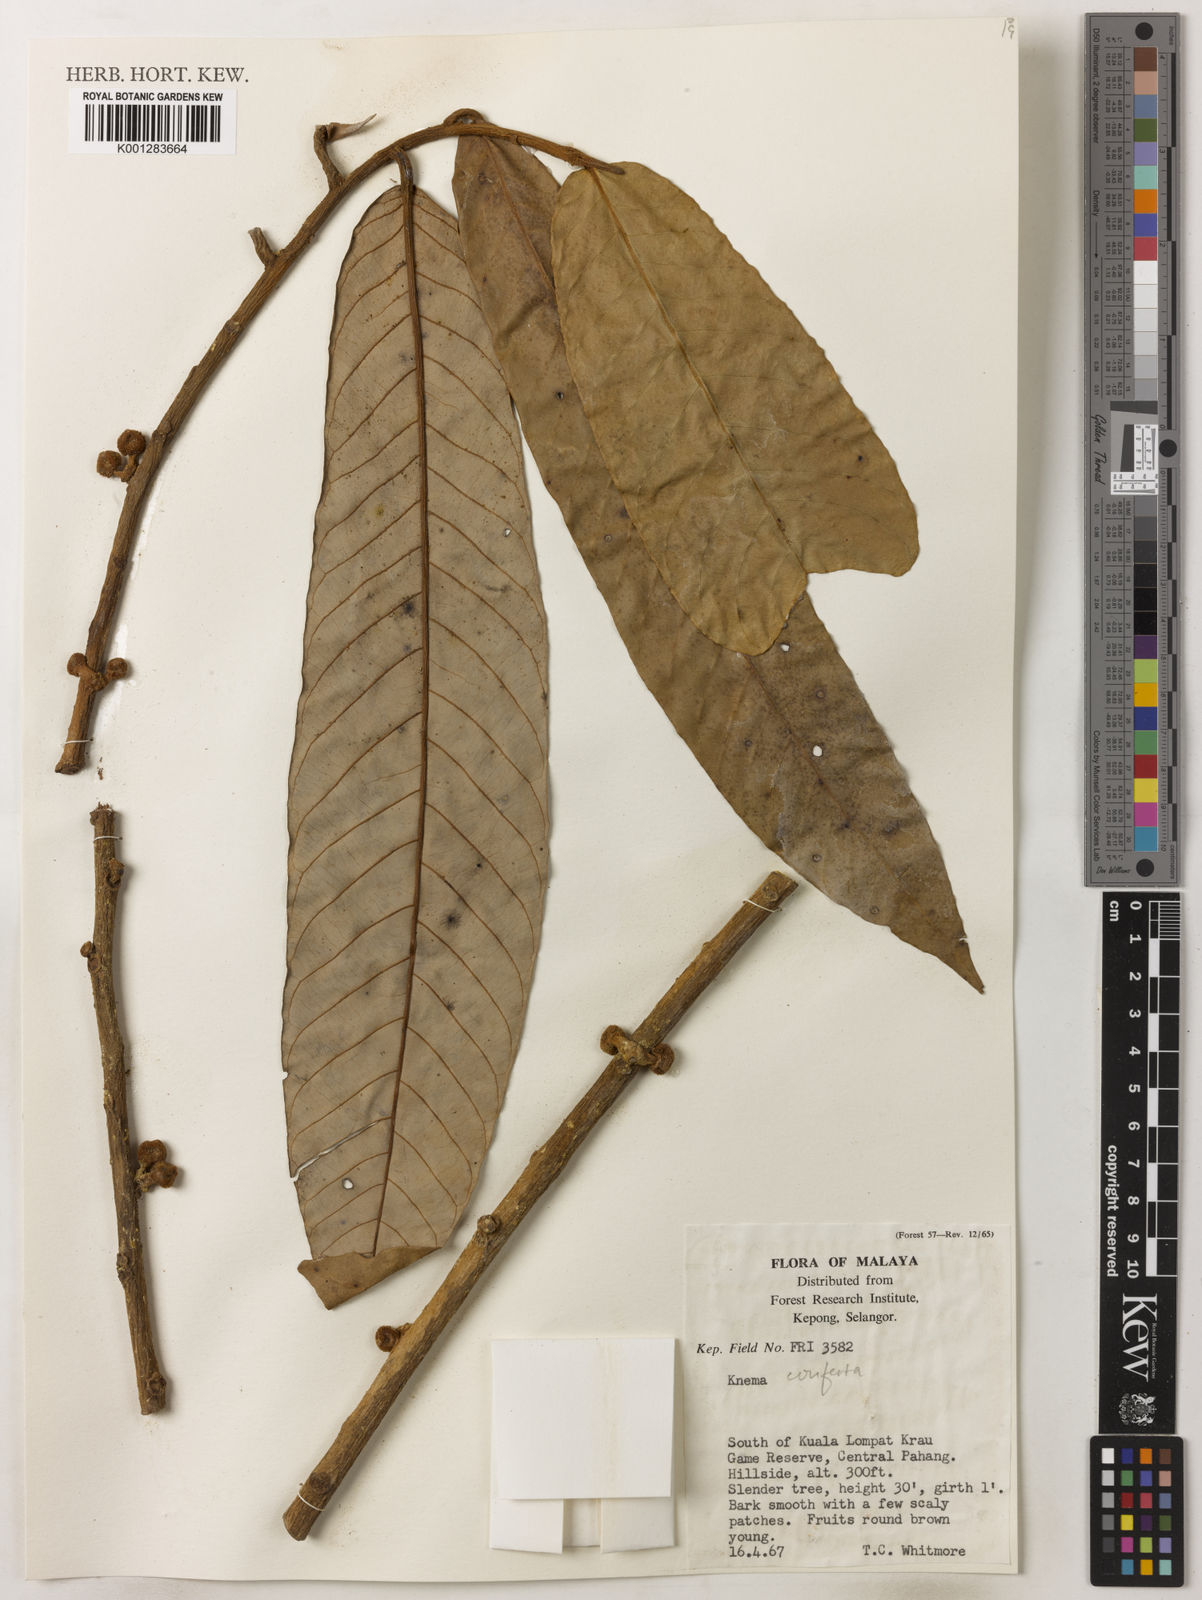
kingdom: Plantae
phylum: Tracheophyta
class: Magnoliopsida
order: Magnoliales
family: Myristicaceae
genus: Knema
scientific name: Knema conferta
